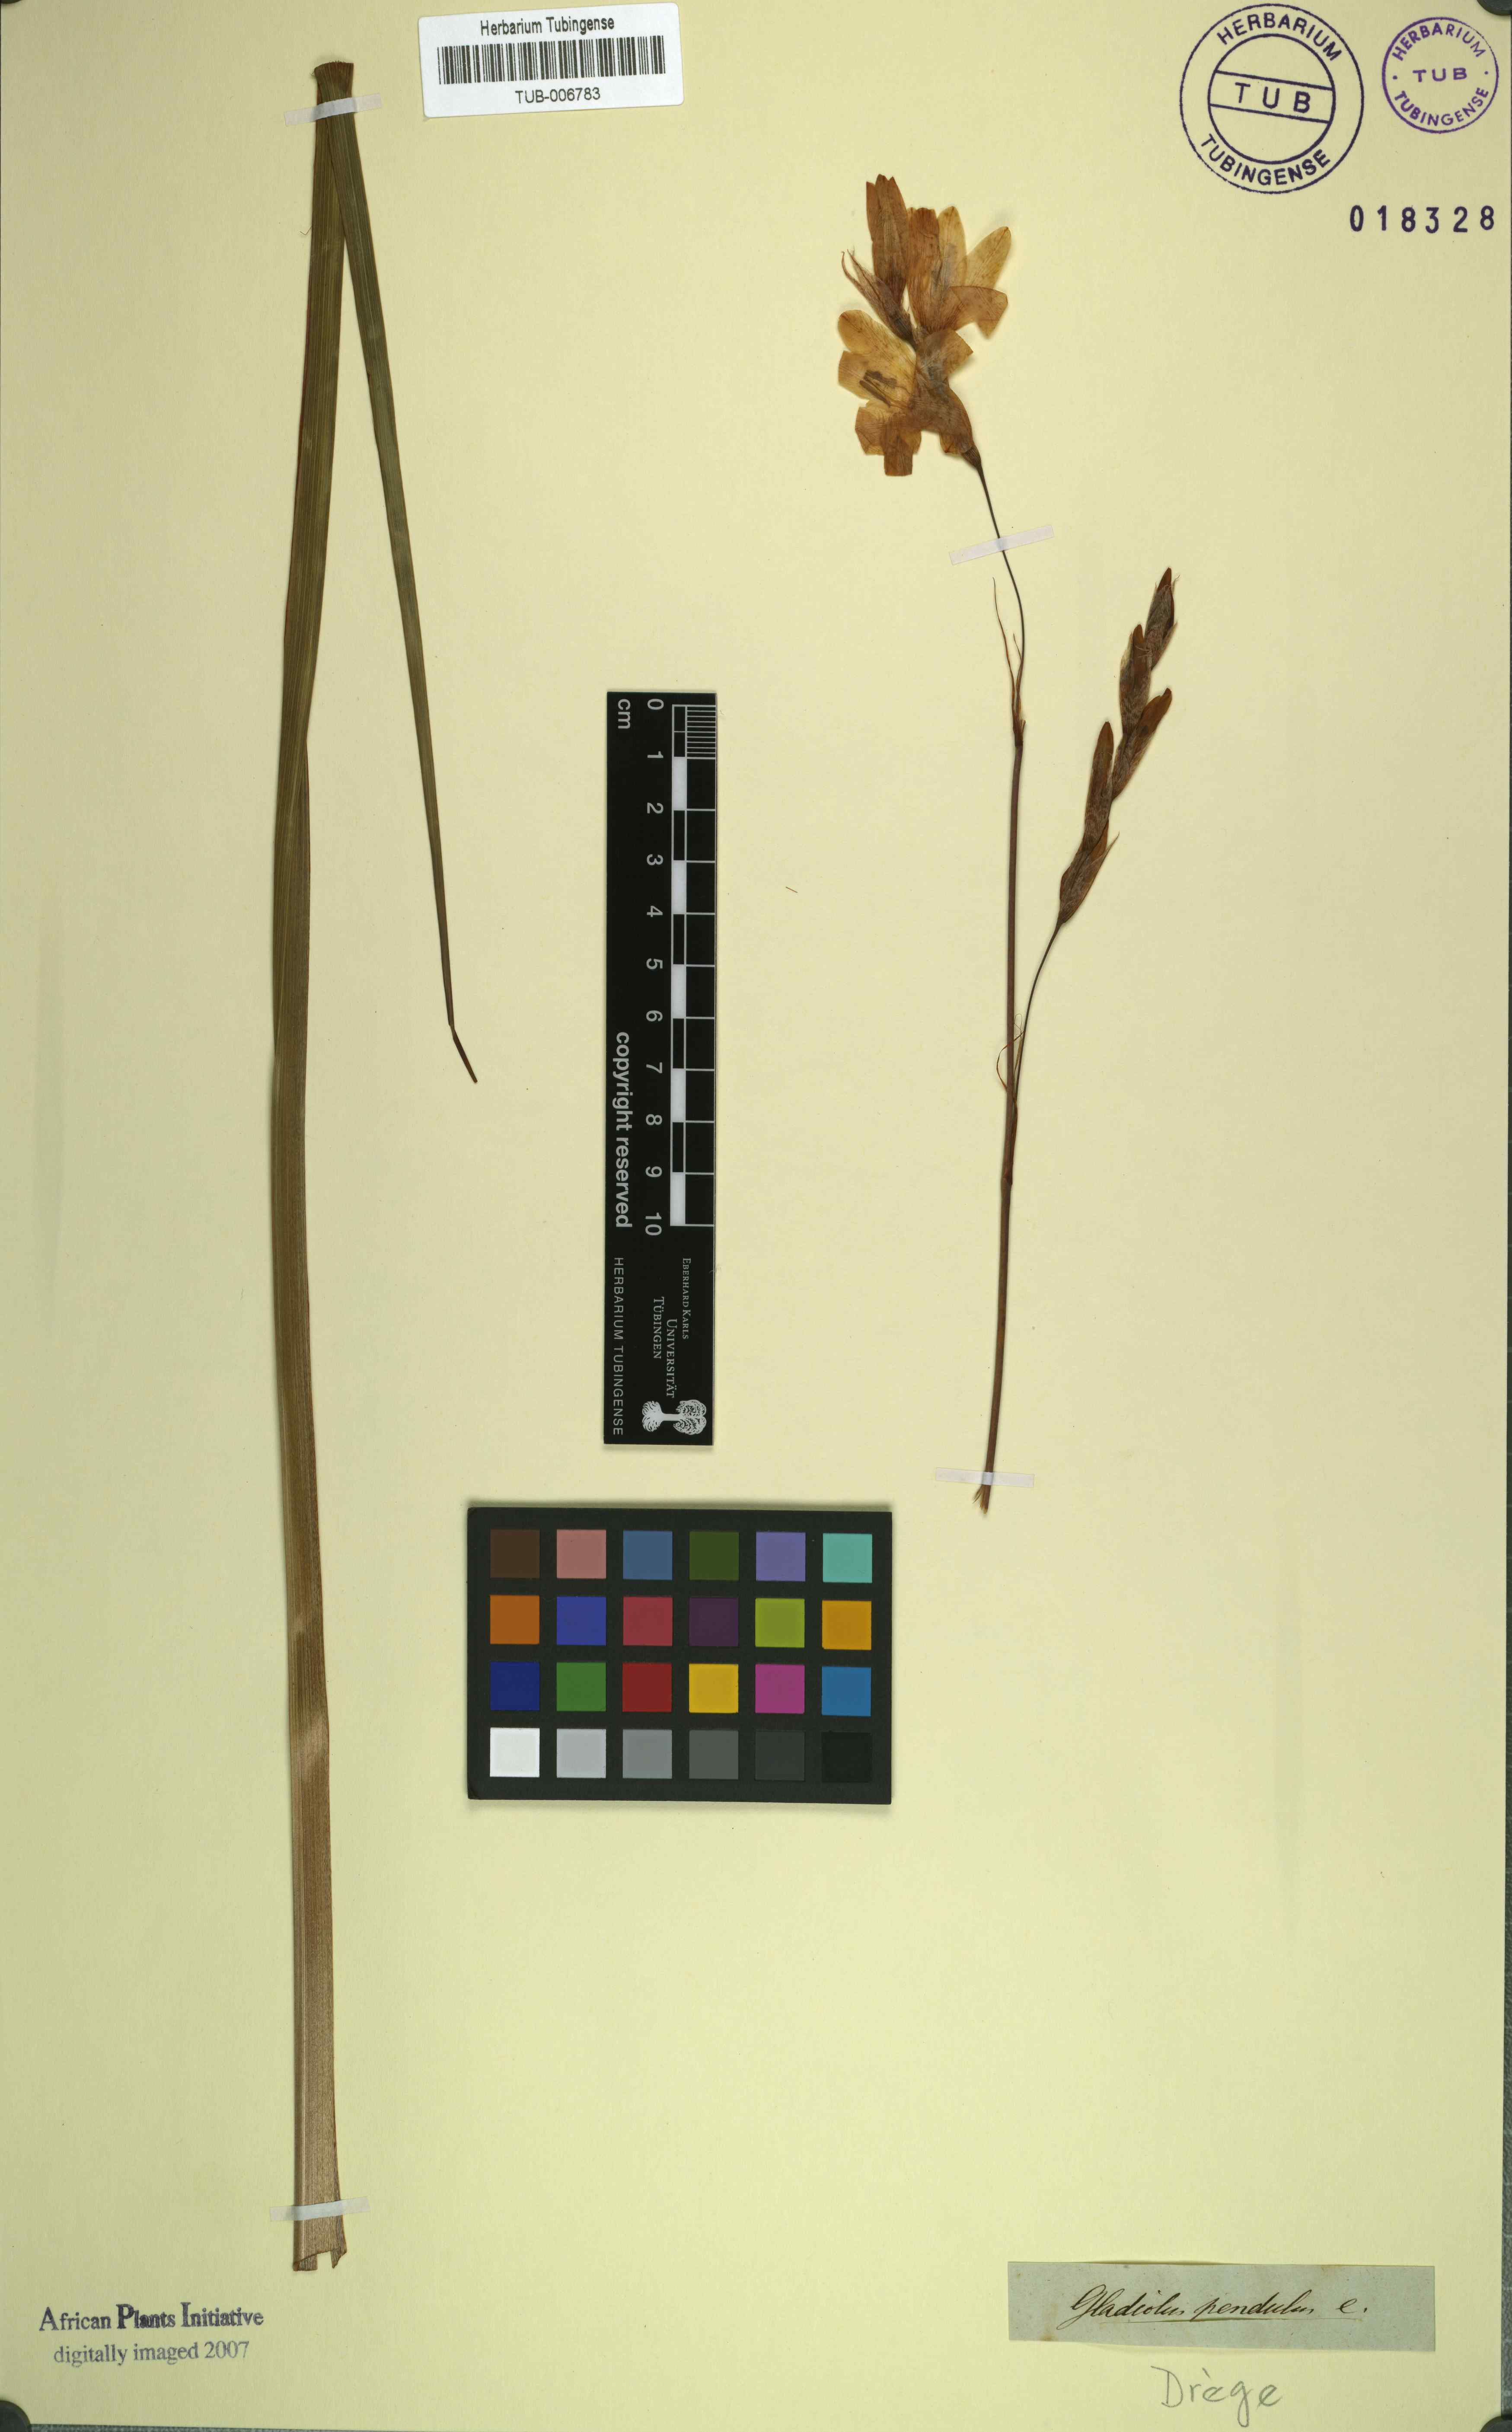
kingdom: Plantae
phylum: Tracheophyta
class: Liliopsida
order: Asparagales
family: Iridaceae
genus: Gladiolus
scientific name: Gladiolus pendulus
